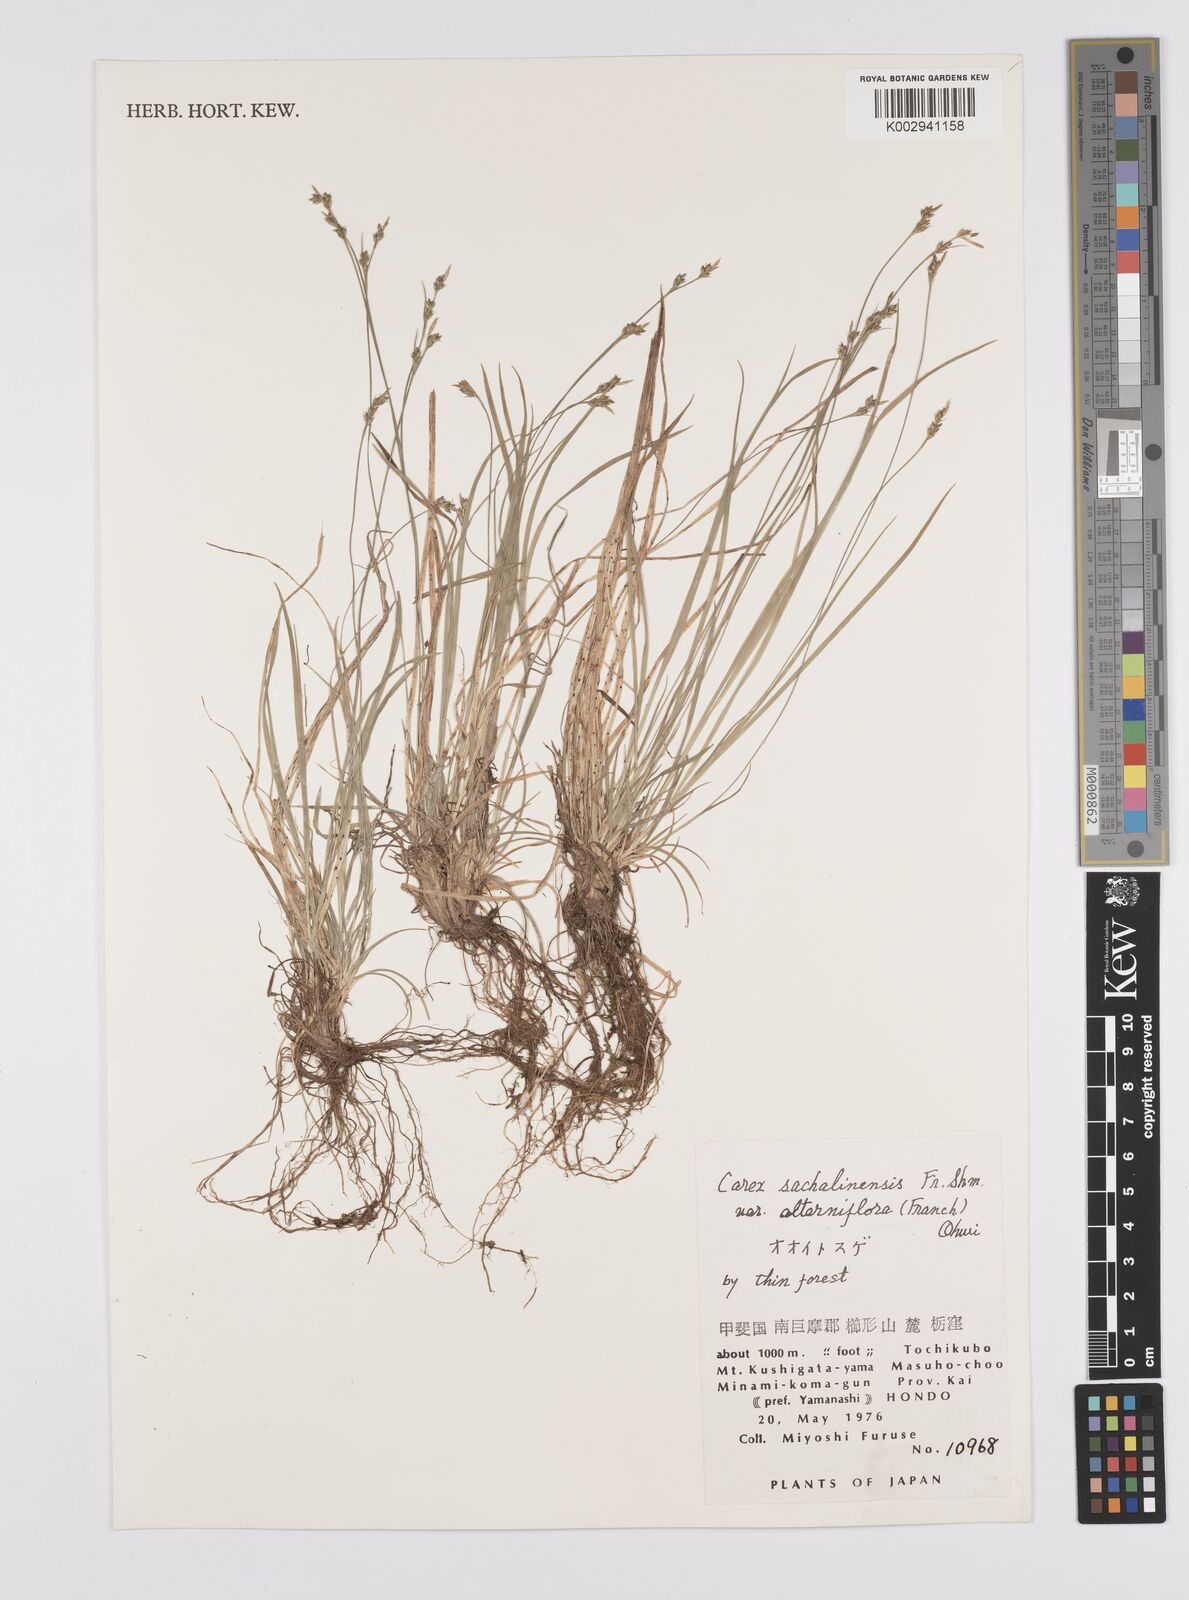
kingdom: Plantae
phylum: Tracheophyta
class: Liliopsida
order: Poales
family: Cyperaceae
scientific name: Cyperaceae
